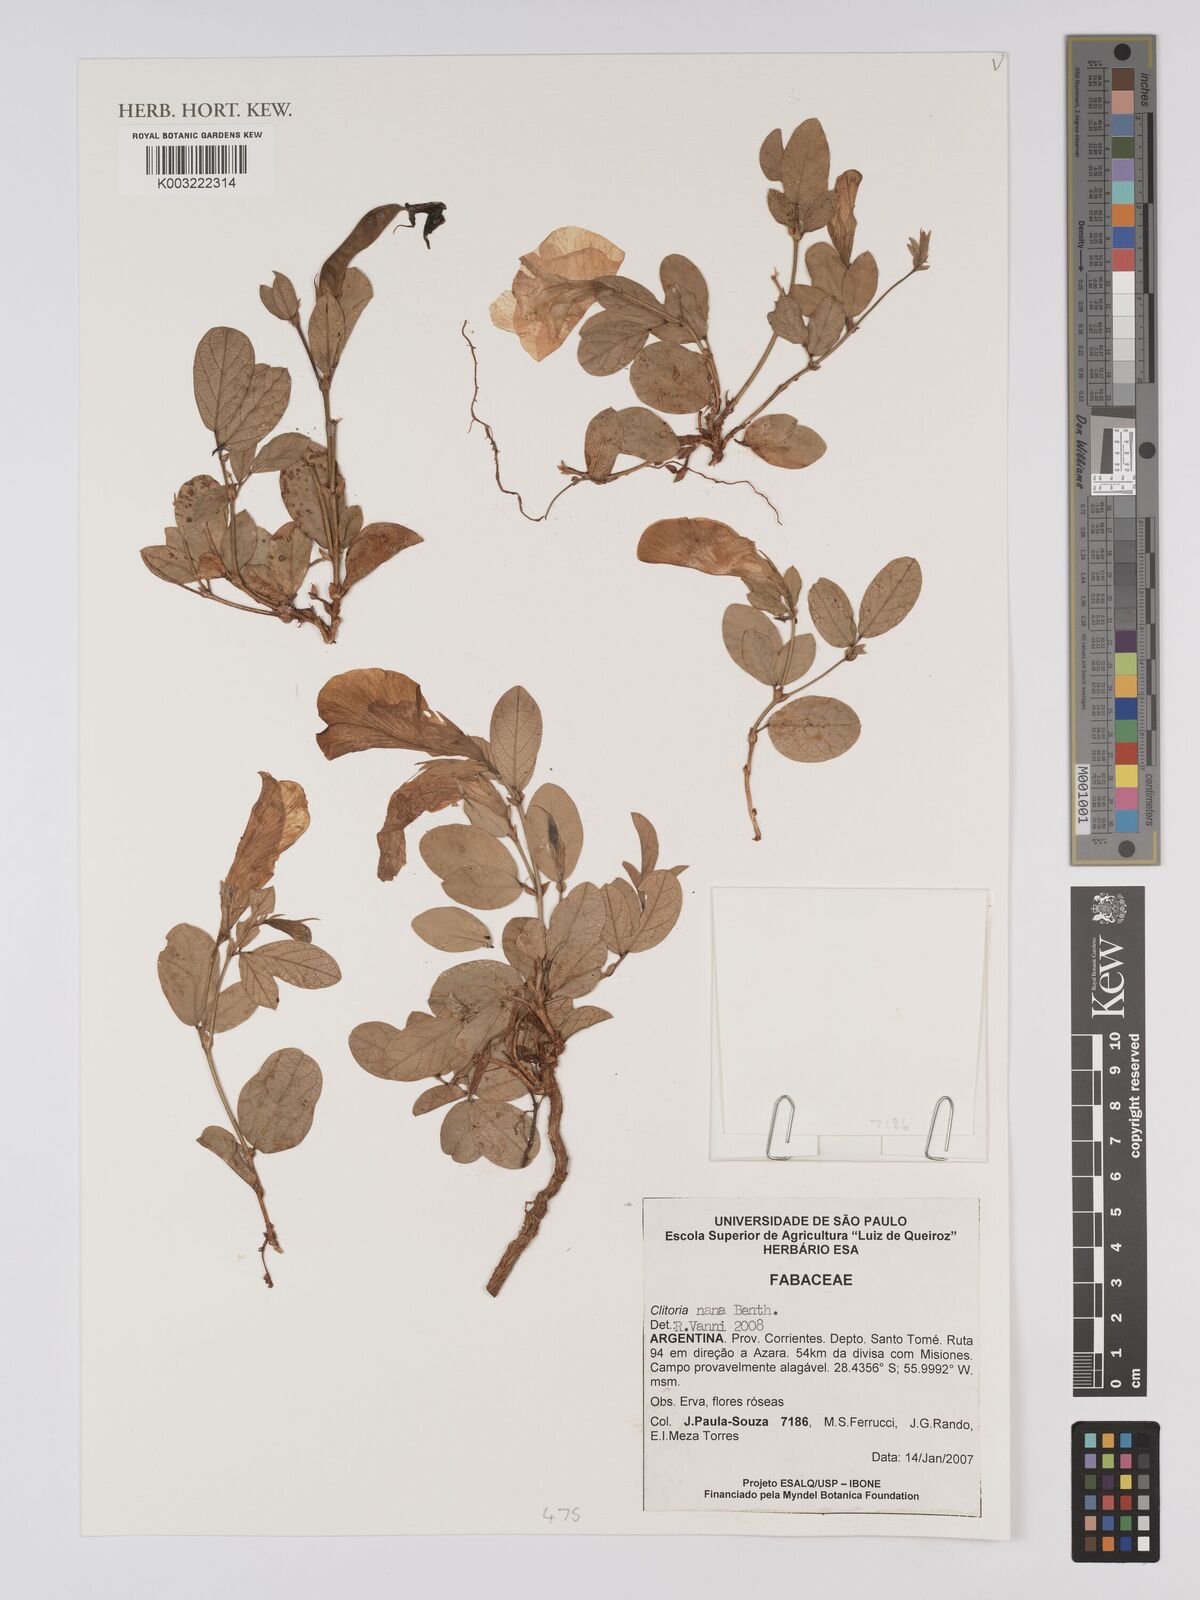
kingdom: Plantae
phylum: Tracheophyta
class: Magnoliopsida
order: Fabales
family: Fabaceae
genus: Clitoria
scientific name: Clitoria nana
